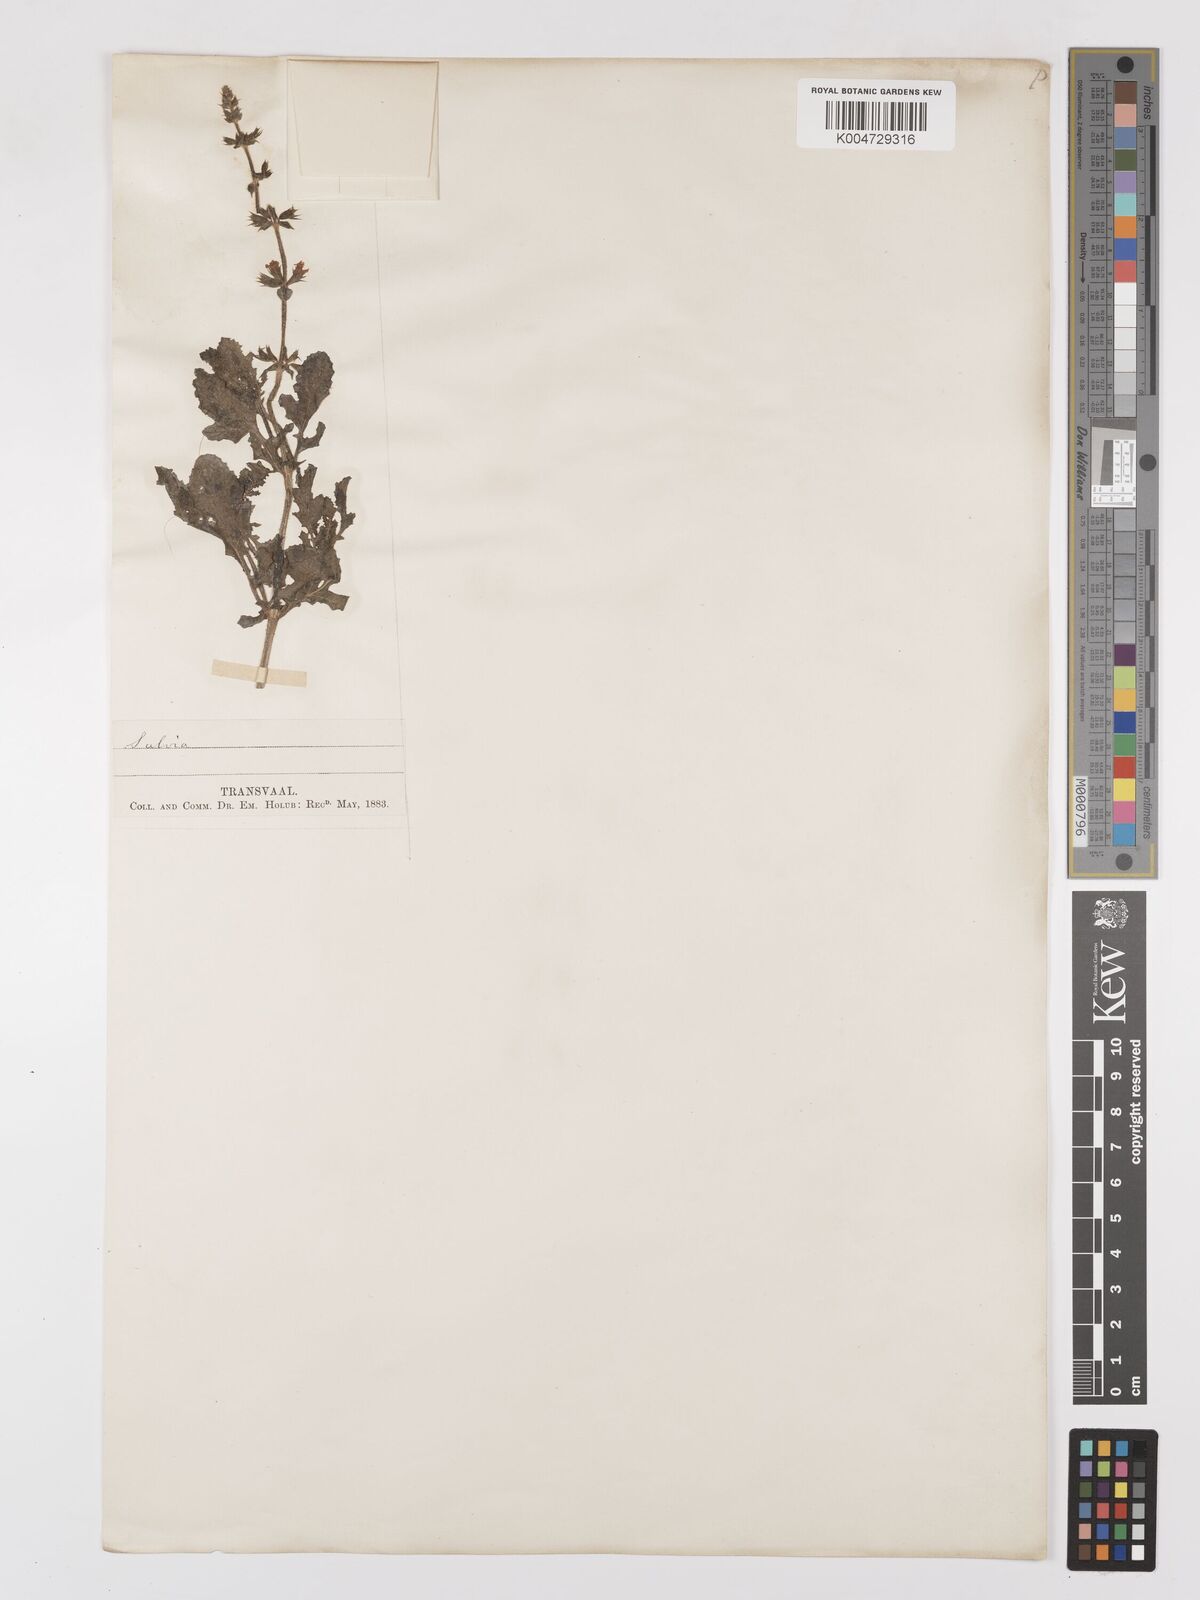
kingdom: Plantae
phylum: Tracheophyta
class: Magnoliopsida
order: Lamiales
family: Lamiaceae
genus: Salvia
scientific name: Salvia runcinata
